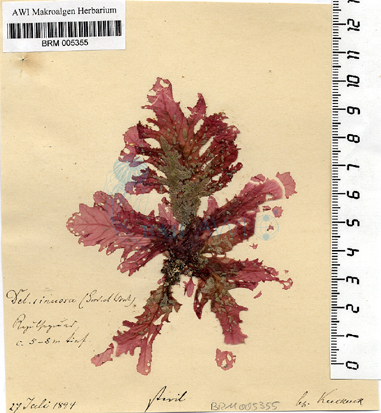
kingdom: Plantae
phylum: Rhodophyta
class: Florideophyceae
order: Ceramiales
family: Delesseriaceae
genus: Phycodrys
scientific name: Phycodrys rubens
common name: Sea oak
